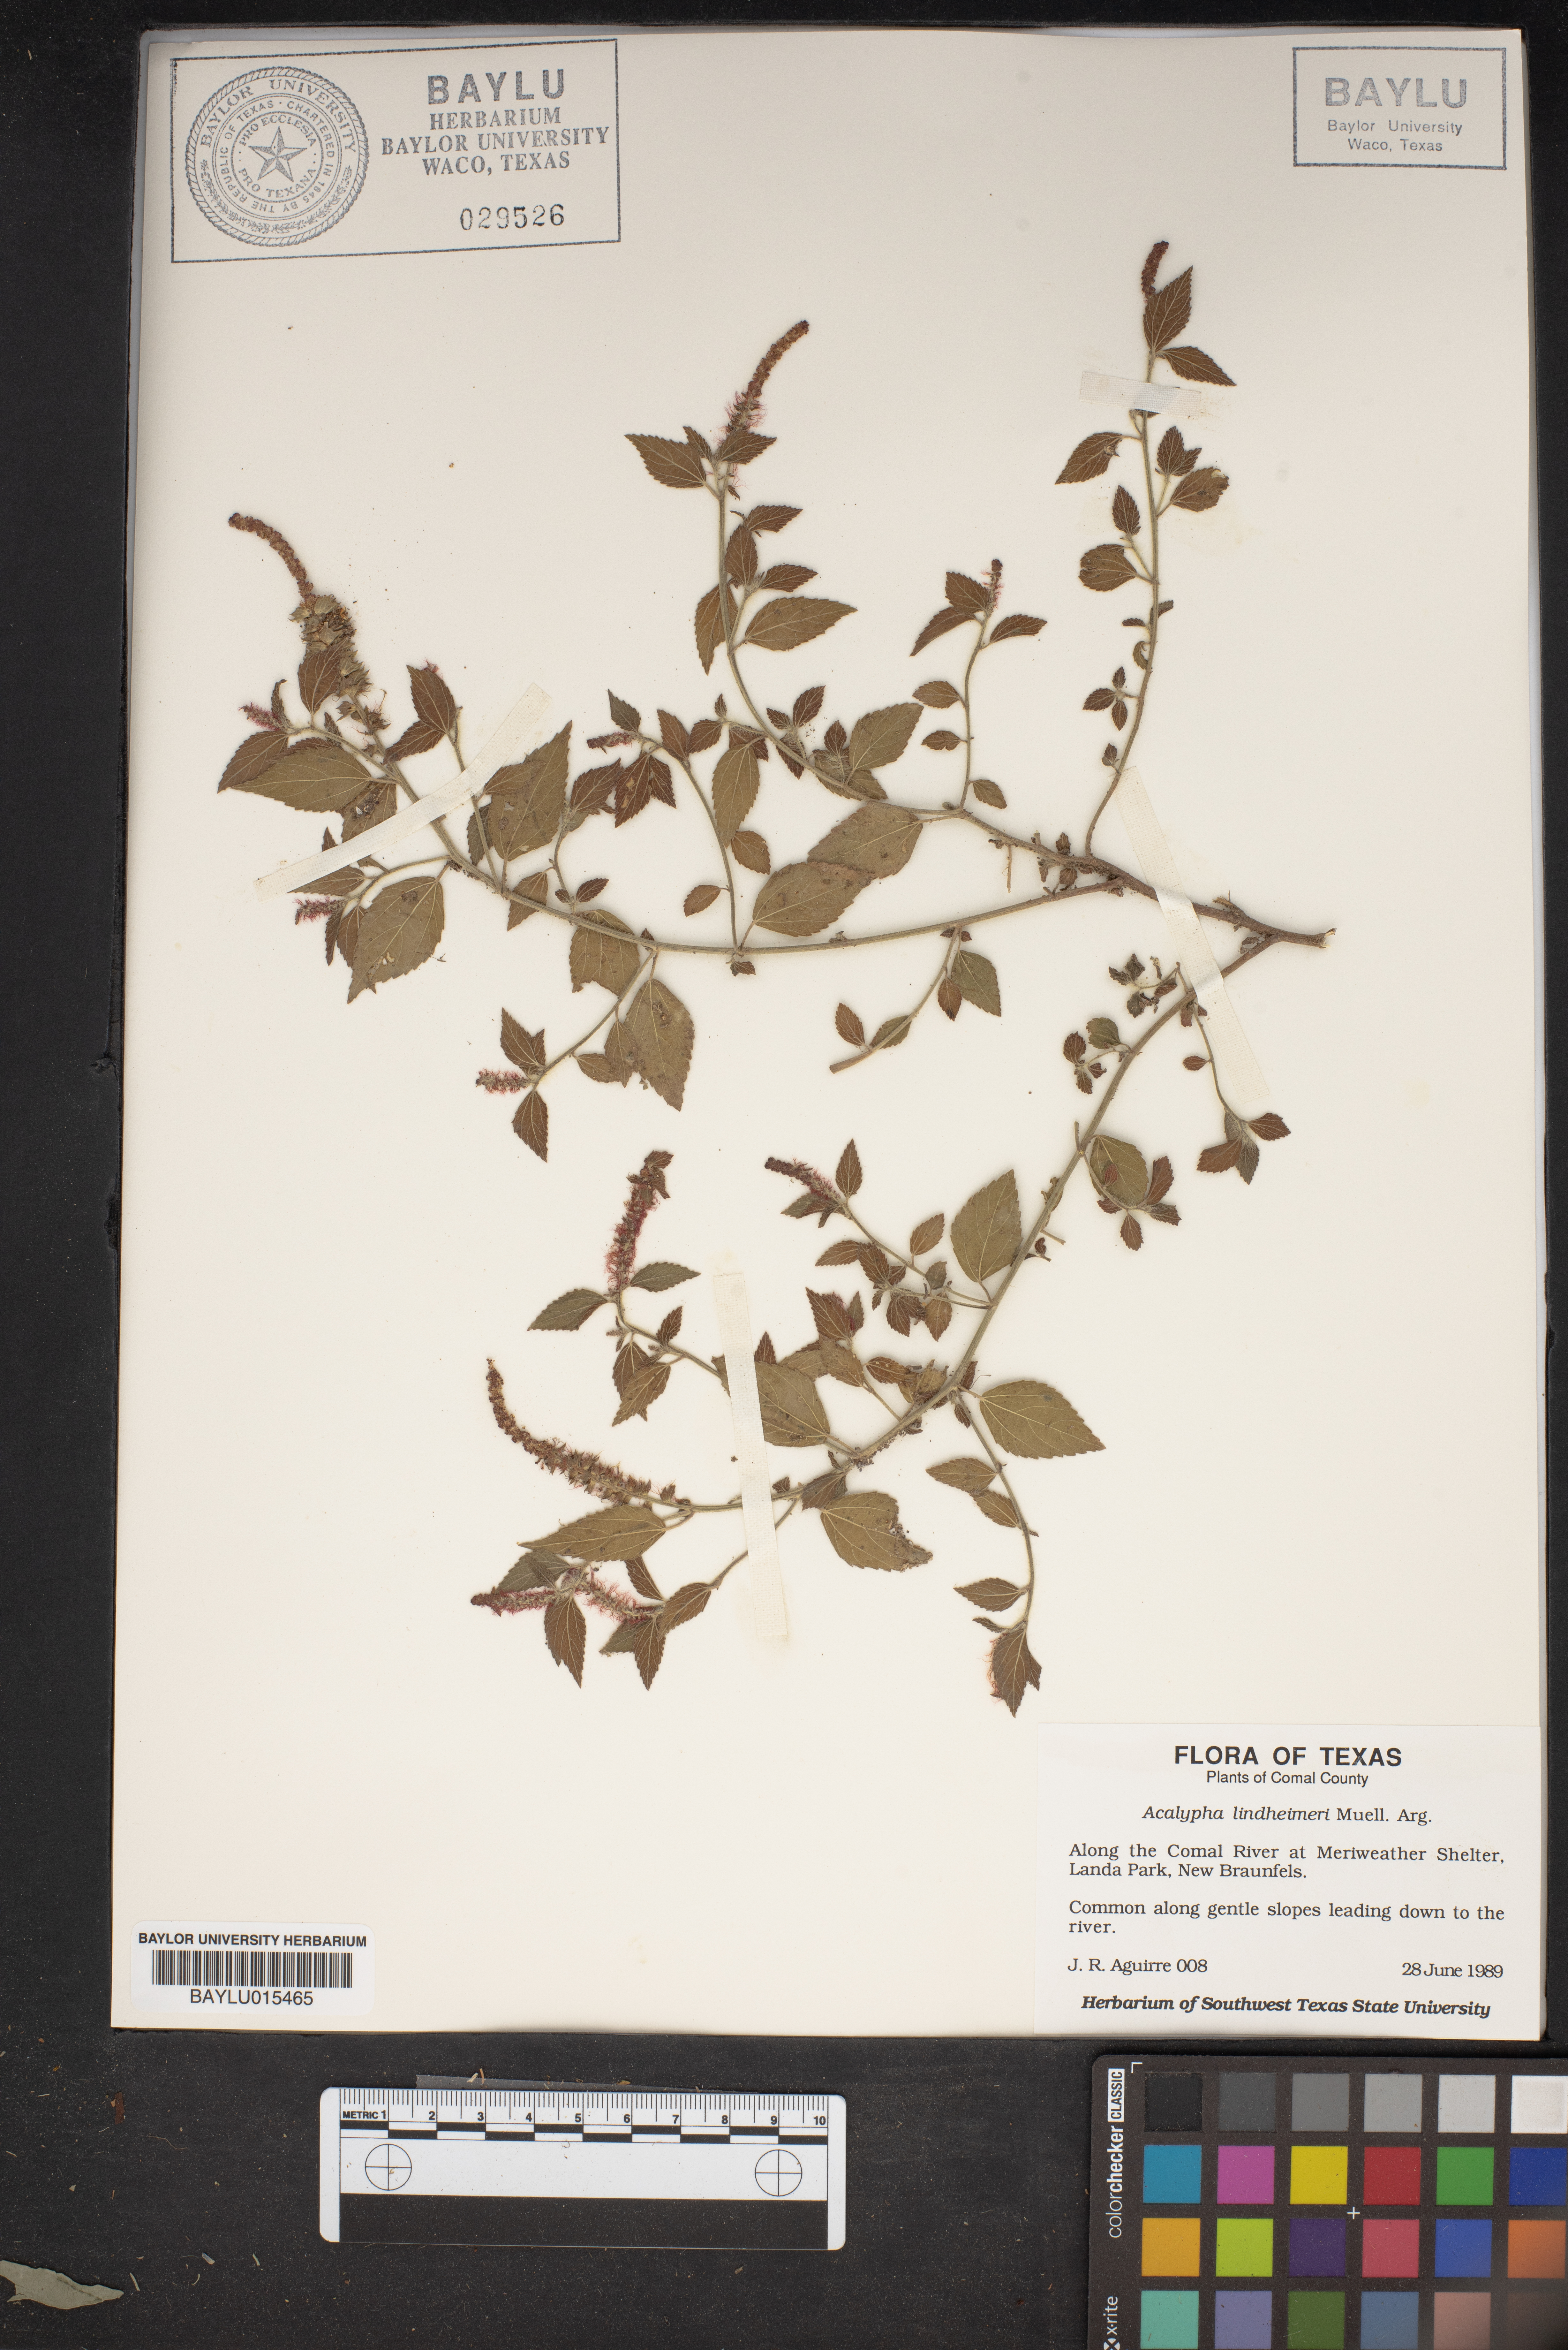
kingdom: Plantae
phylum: Tracheophyta
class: Magnoliopsida
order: Malpighiales
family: Euphorbiaceae
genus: Acalypha
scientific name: Acalypha phleoides
